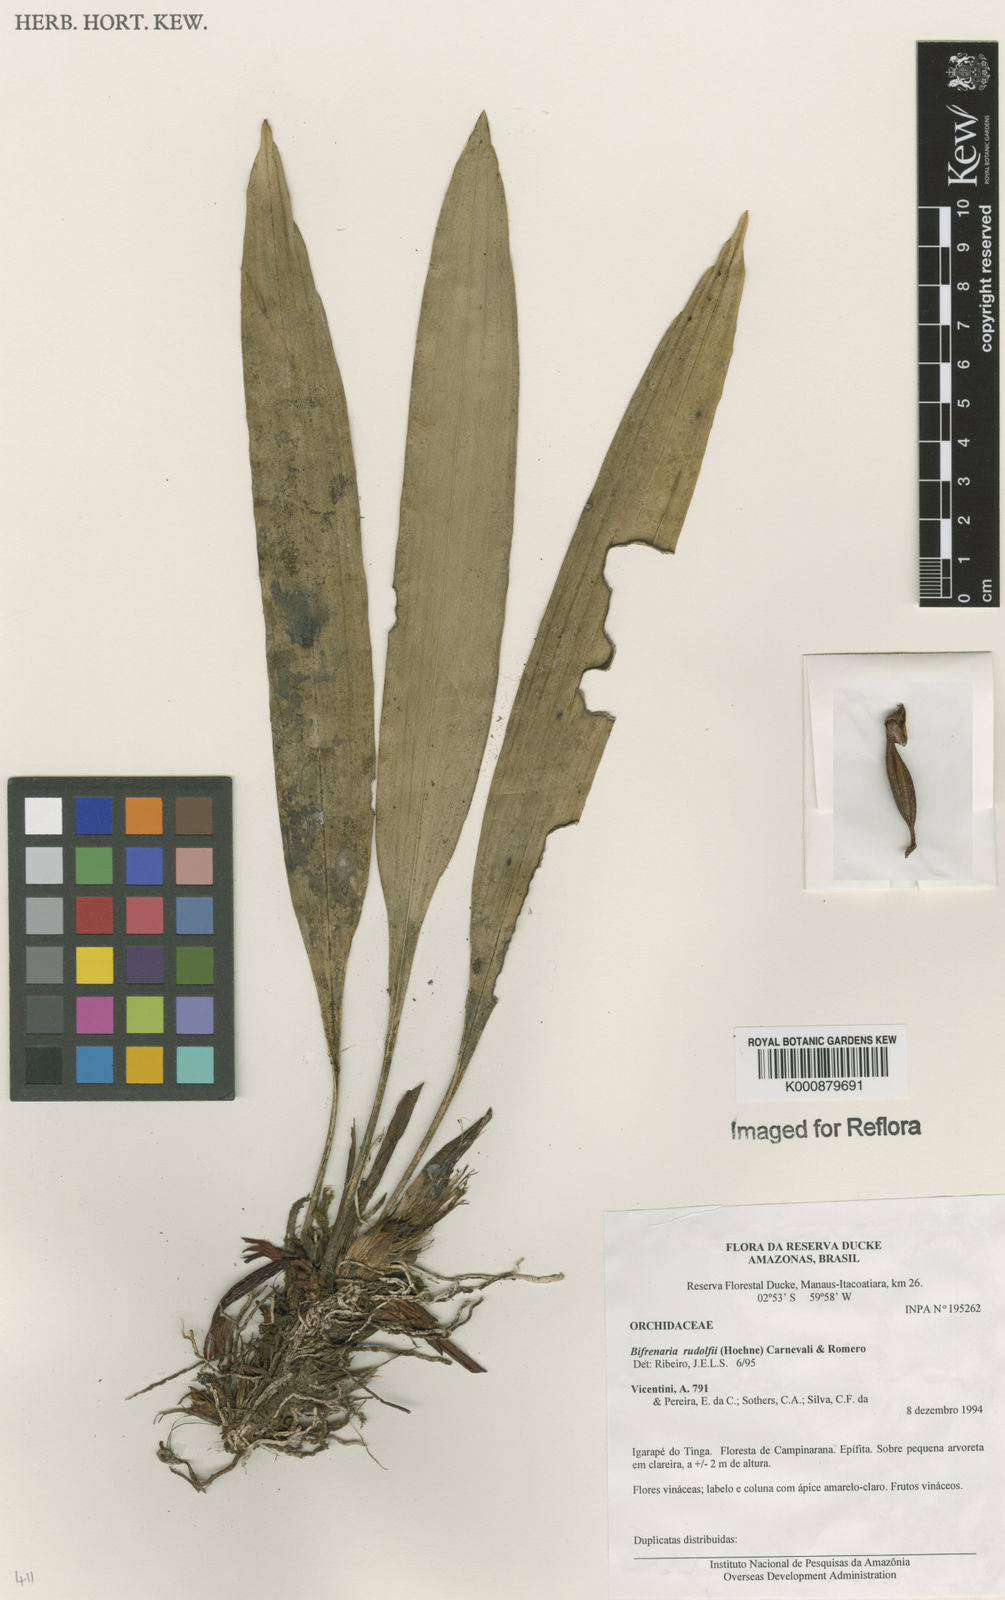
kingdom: Plantae
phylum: Tracheophyta
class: Liliopsida
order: Asparagales
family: Orchidaceae
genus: Maxillaria
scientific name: Maxillaria petiolaris
